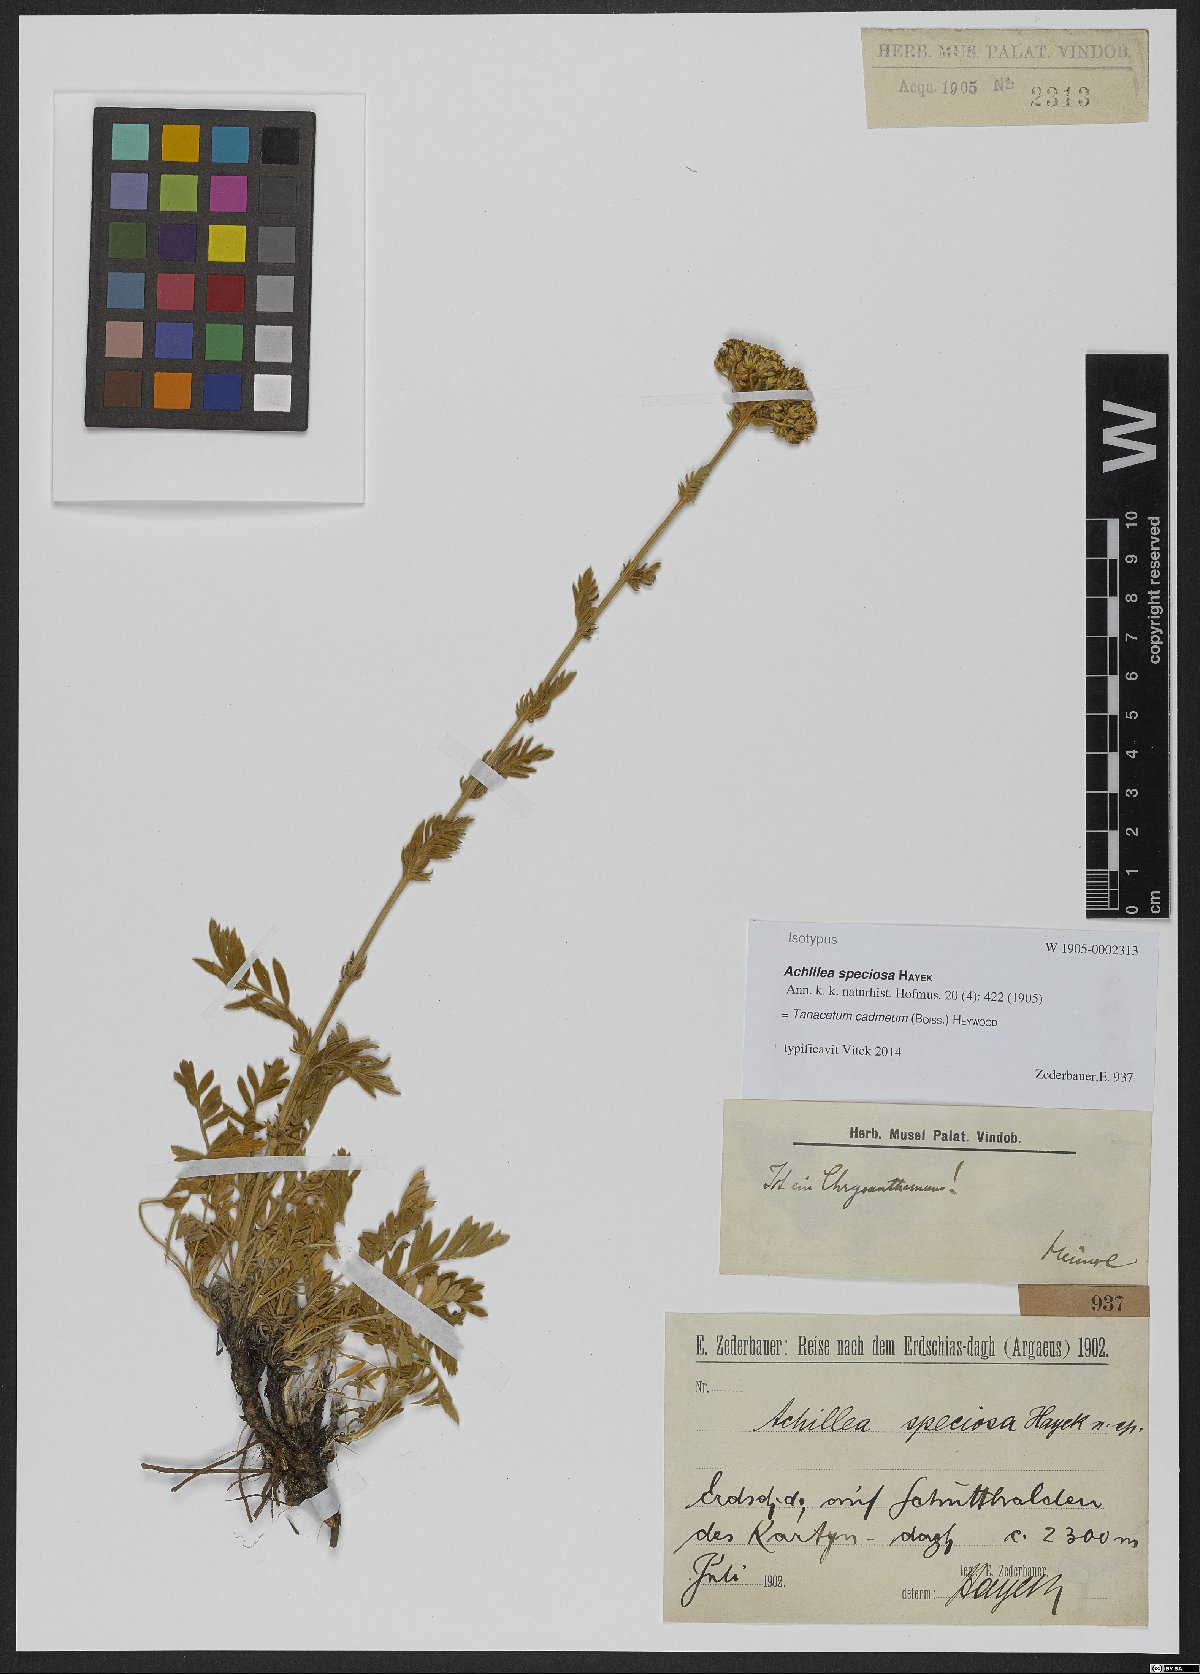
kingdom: Plantae
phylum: Tracheophyta
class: Magnoliopsida
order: Asterales
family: Asteraceae
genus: Tanacetum
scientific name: Tanacetum cadmeum
